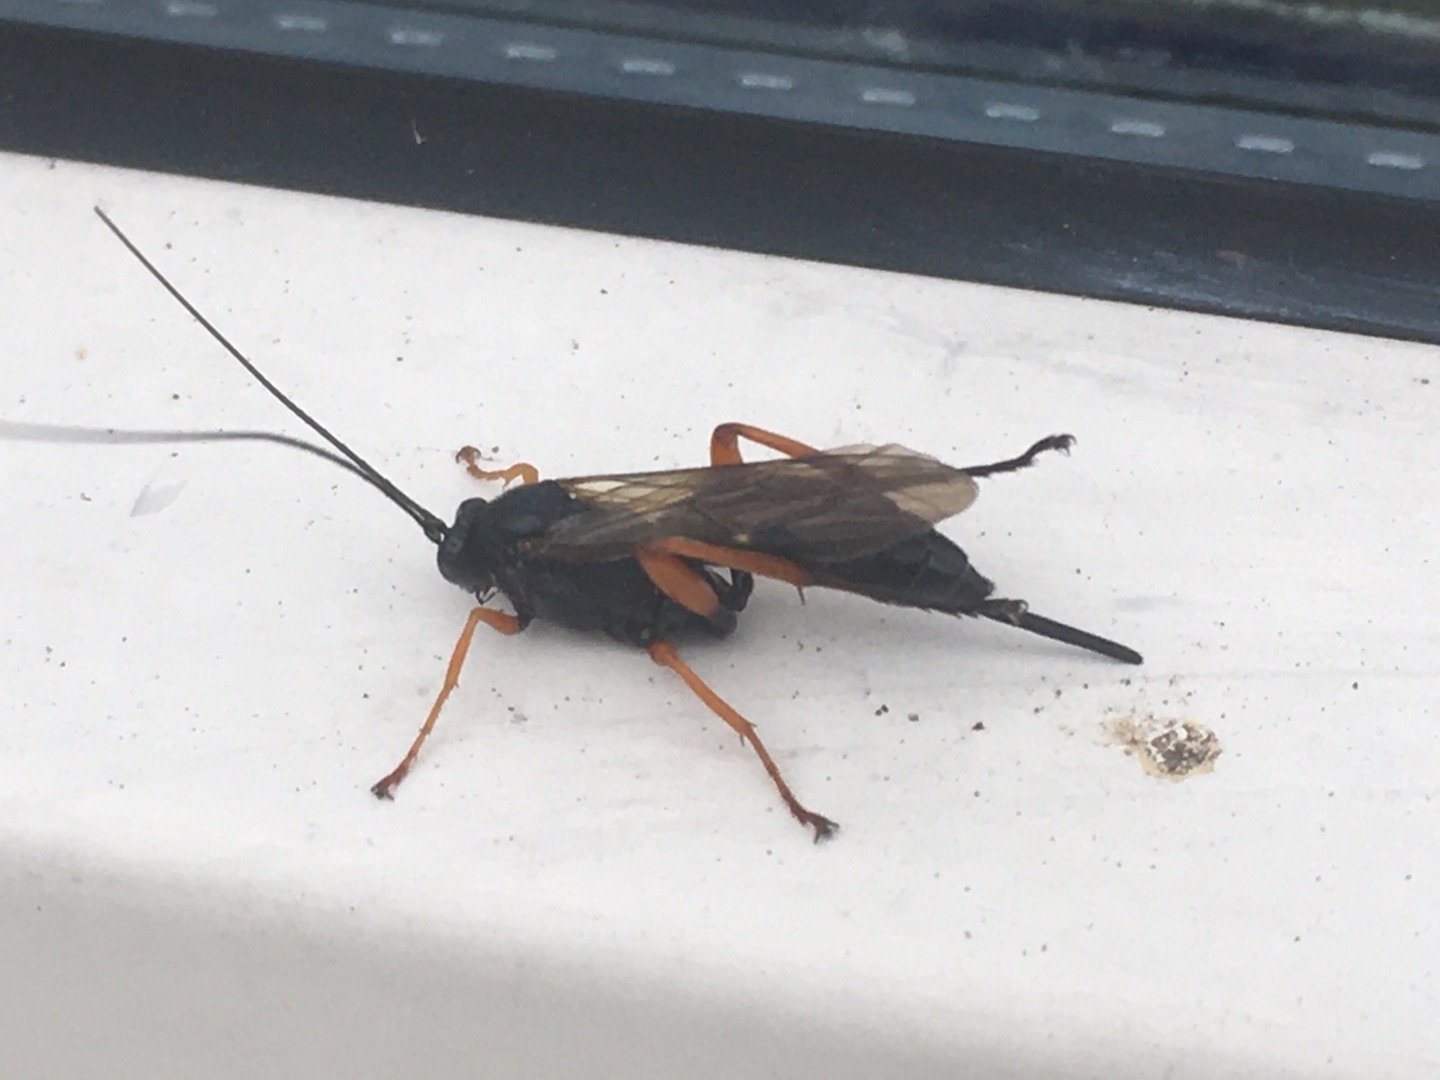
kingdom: Animalia
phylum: Arthropoda
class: Insecta
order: Hymenoptera
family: Ichneumonidae
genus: Pimpla
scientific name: Pimpla rufipes
